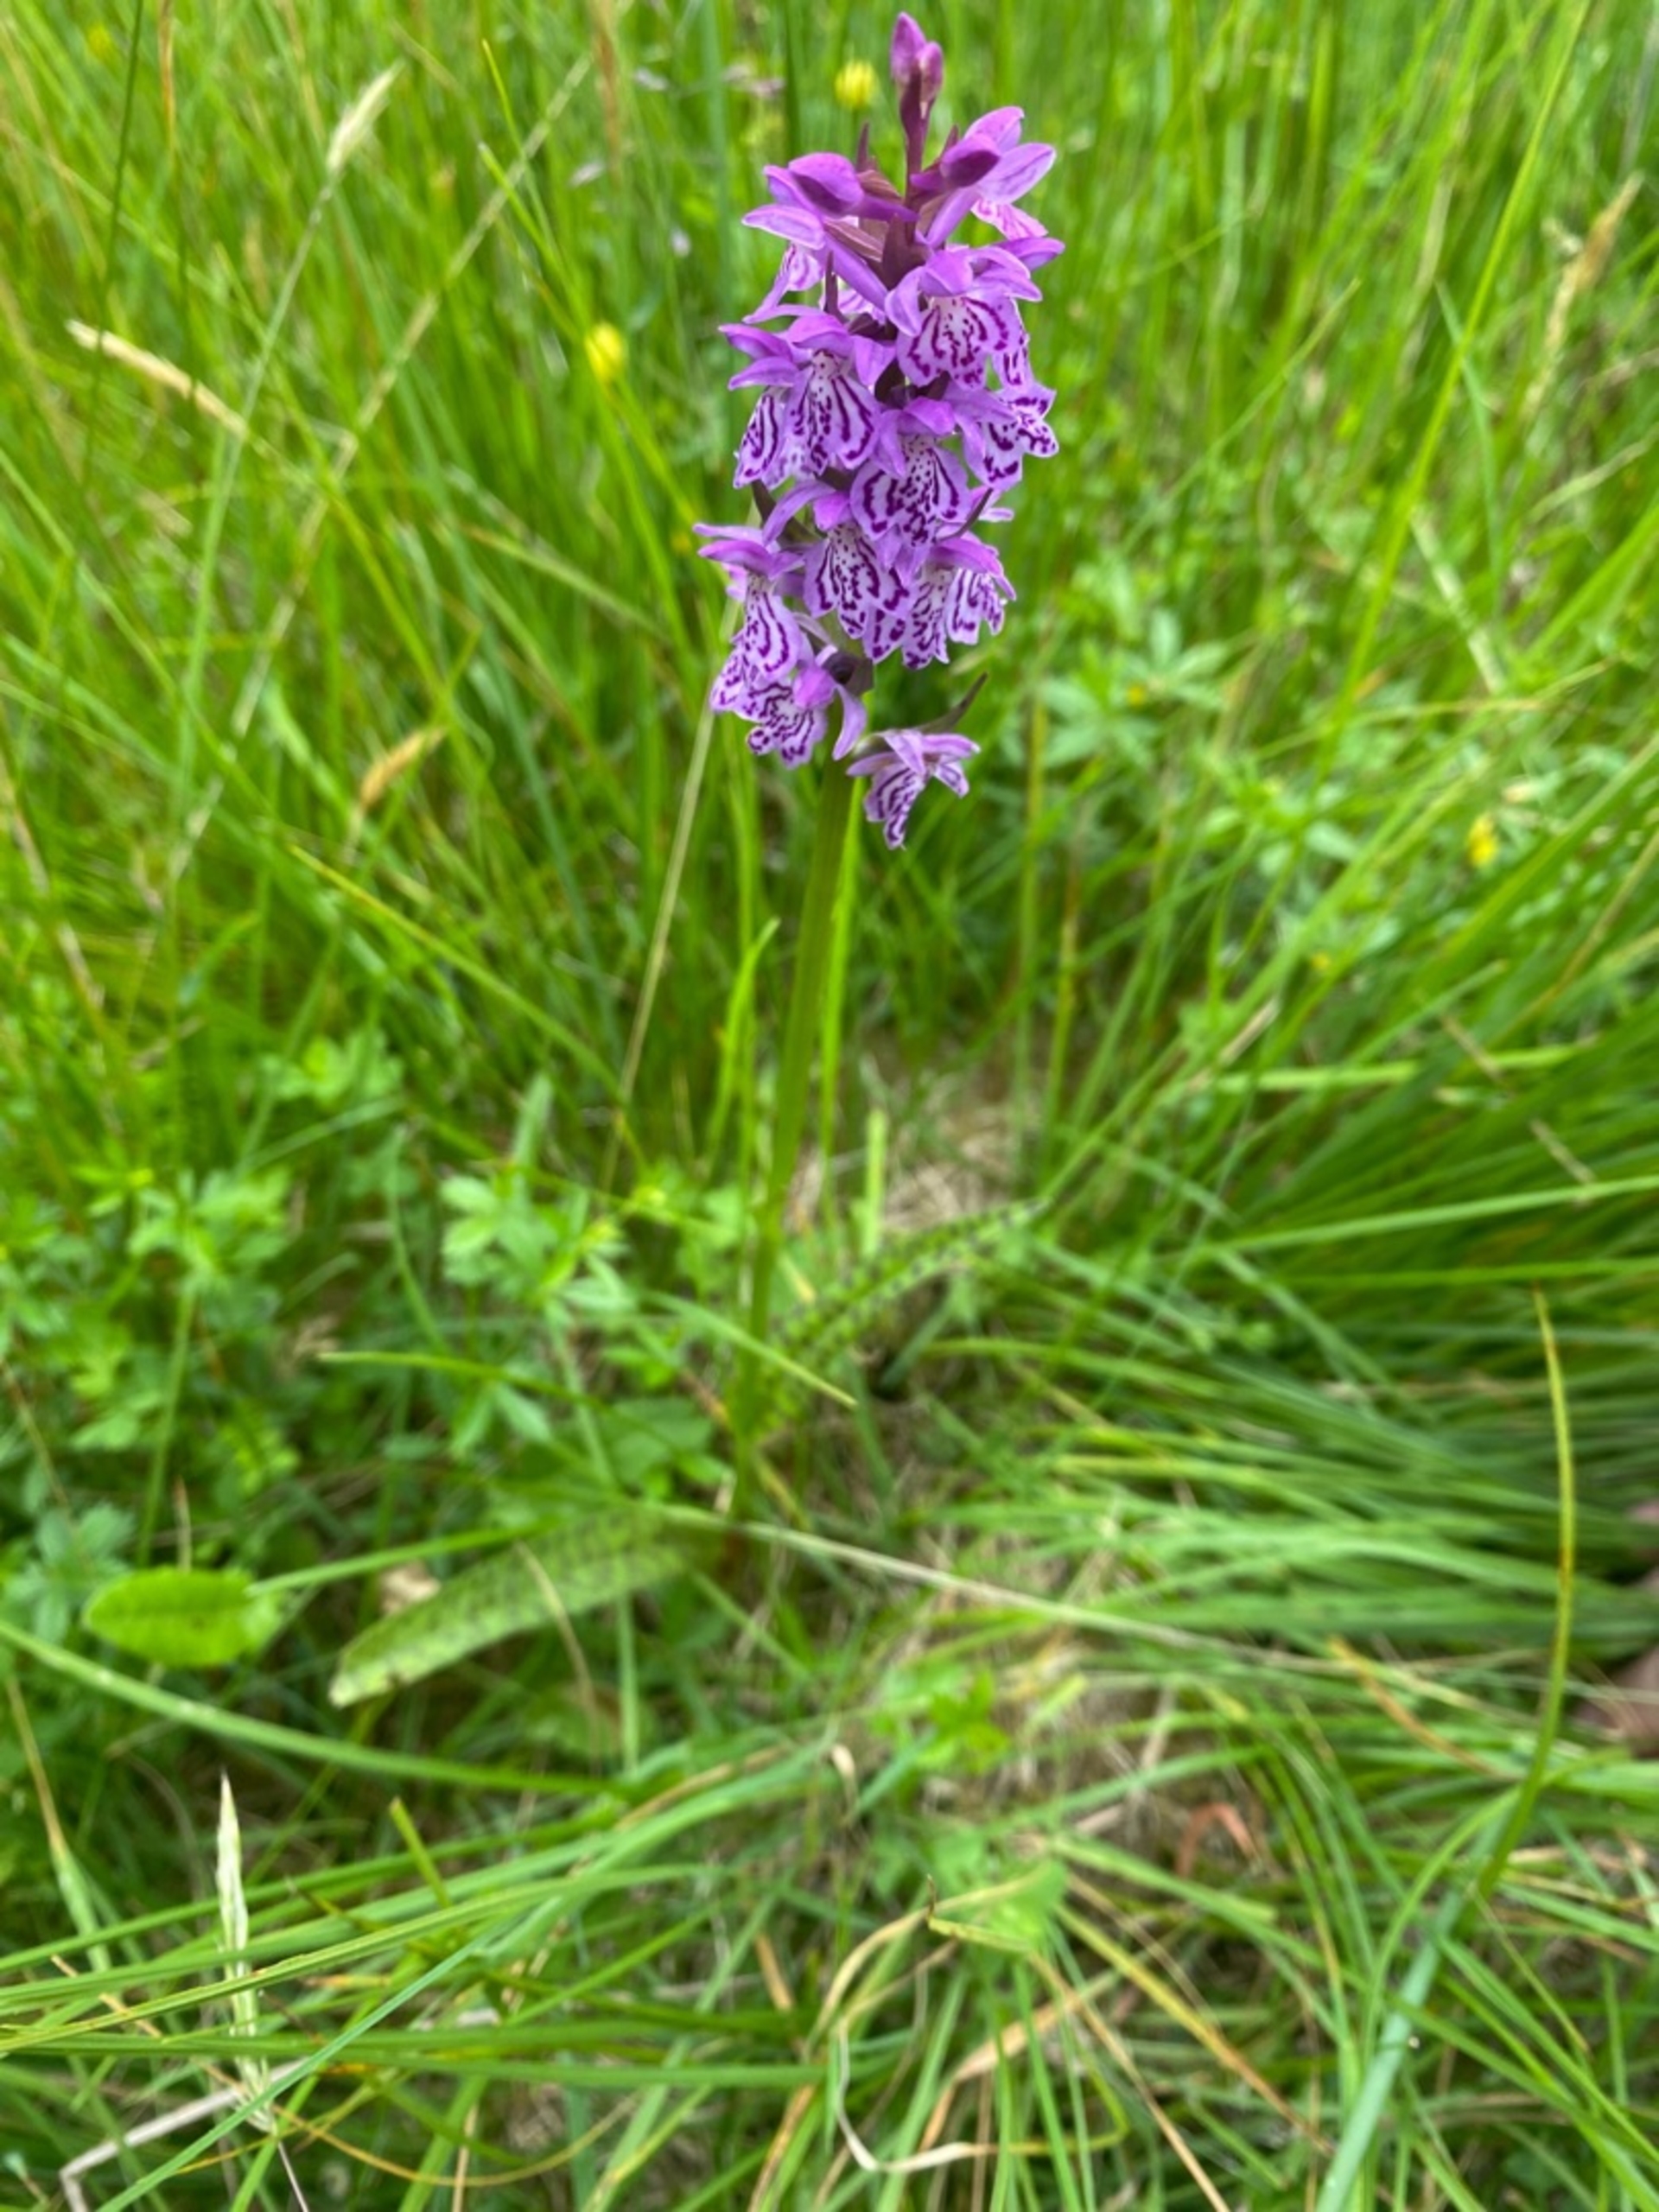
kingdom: Plantae
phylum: Tracheophyta
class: Liliopsida
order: Asparagales
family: Orchidaceae
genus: Dactylorhiza
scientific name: Dactylorhiza maculata
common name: Plettet gøgeurt
